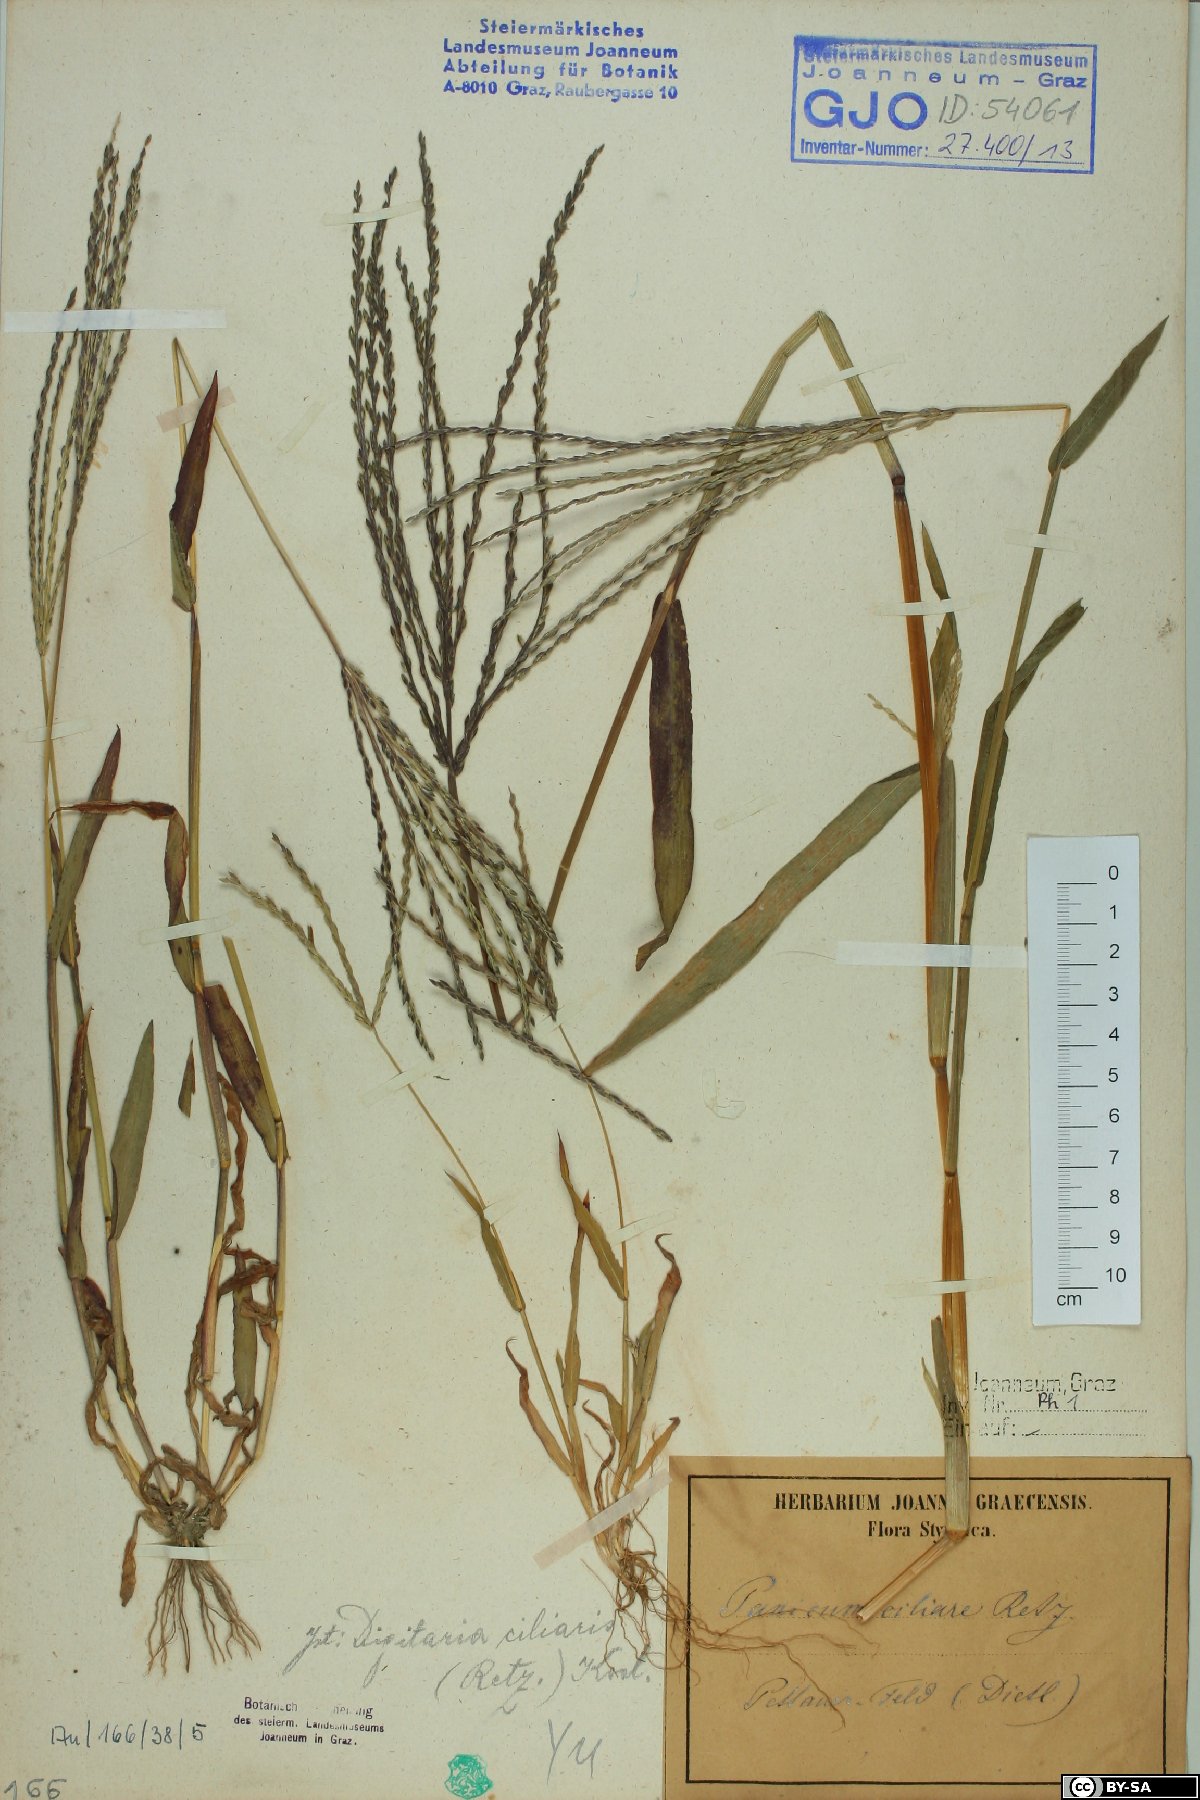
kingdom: Plantae
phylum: Tracheophyta
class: Liliopsida
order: Poales
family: Poaceae
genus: Digitaria
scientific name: Digitaria ciliaris
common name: Tropical finger-grass
